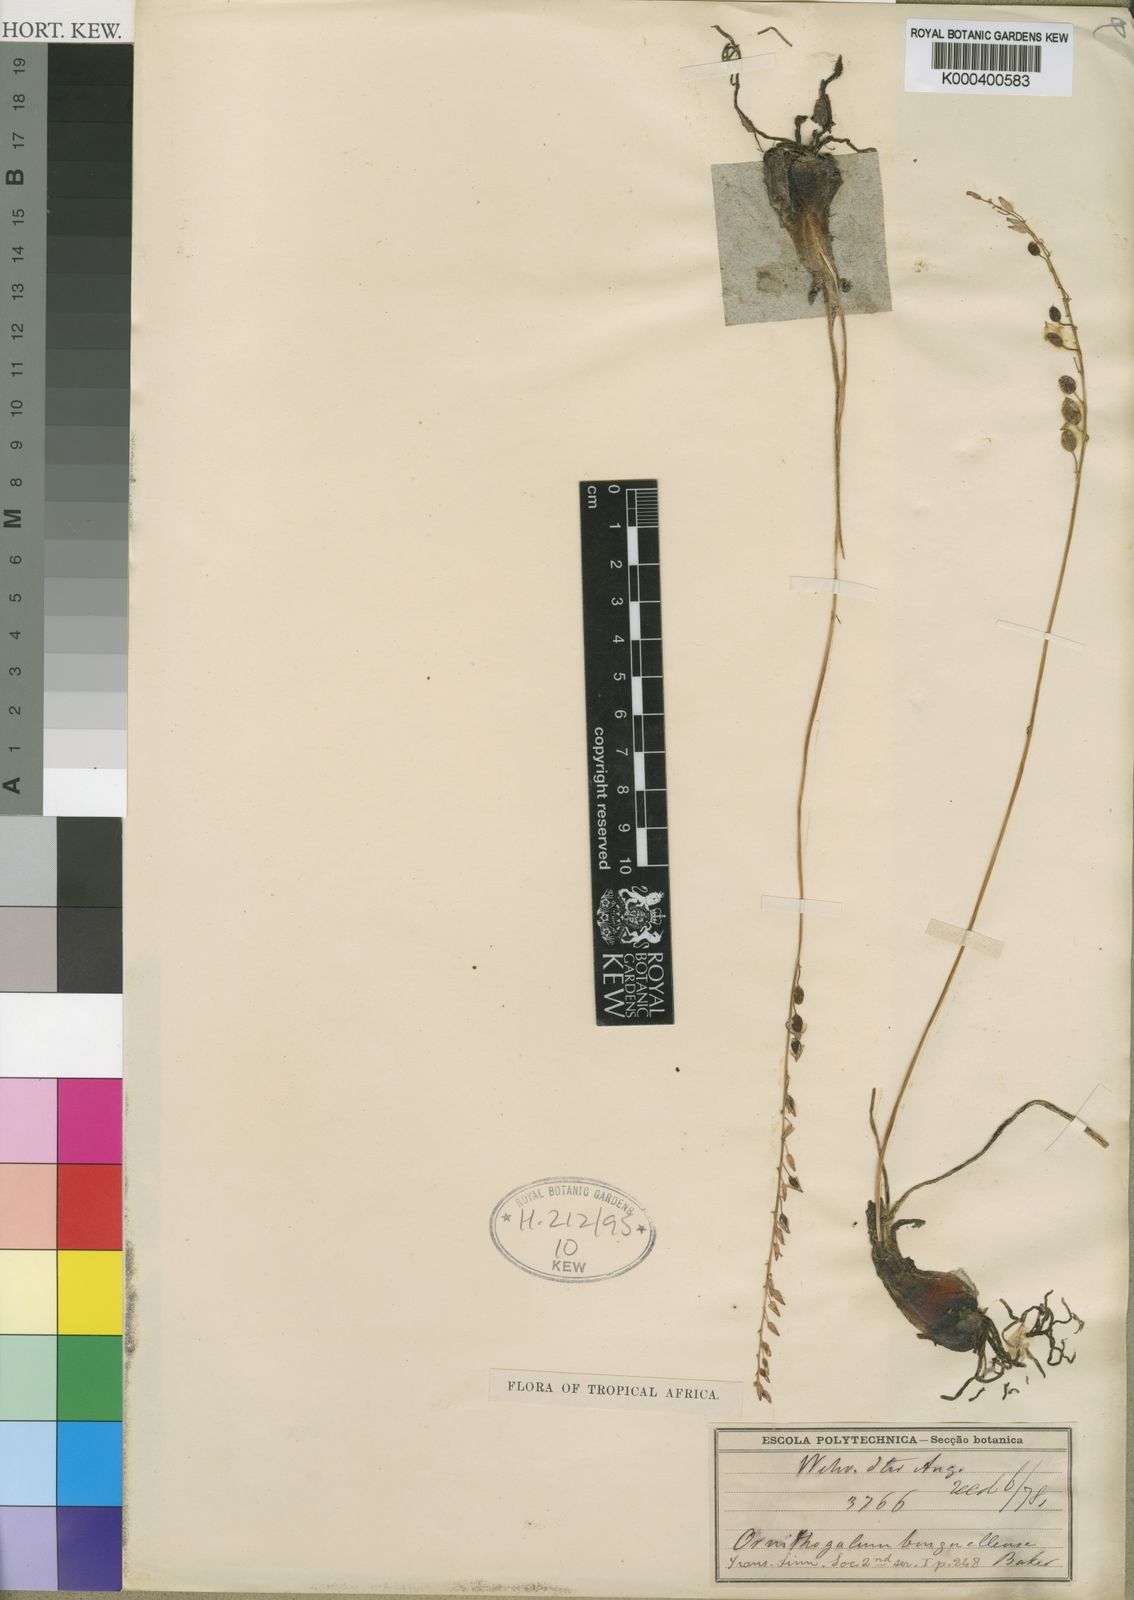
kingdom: Plantae
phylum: Tracheophyta
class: Liliopsida
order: Asparagales
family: Asparagaceae
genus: Ornithogalum
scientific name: Ornithogalum benguellense
